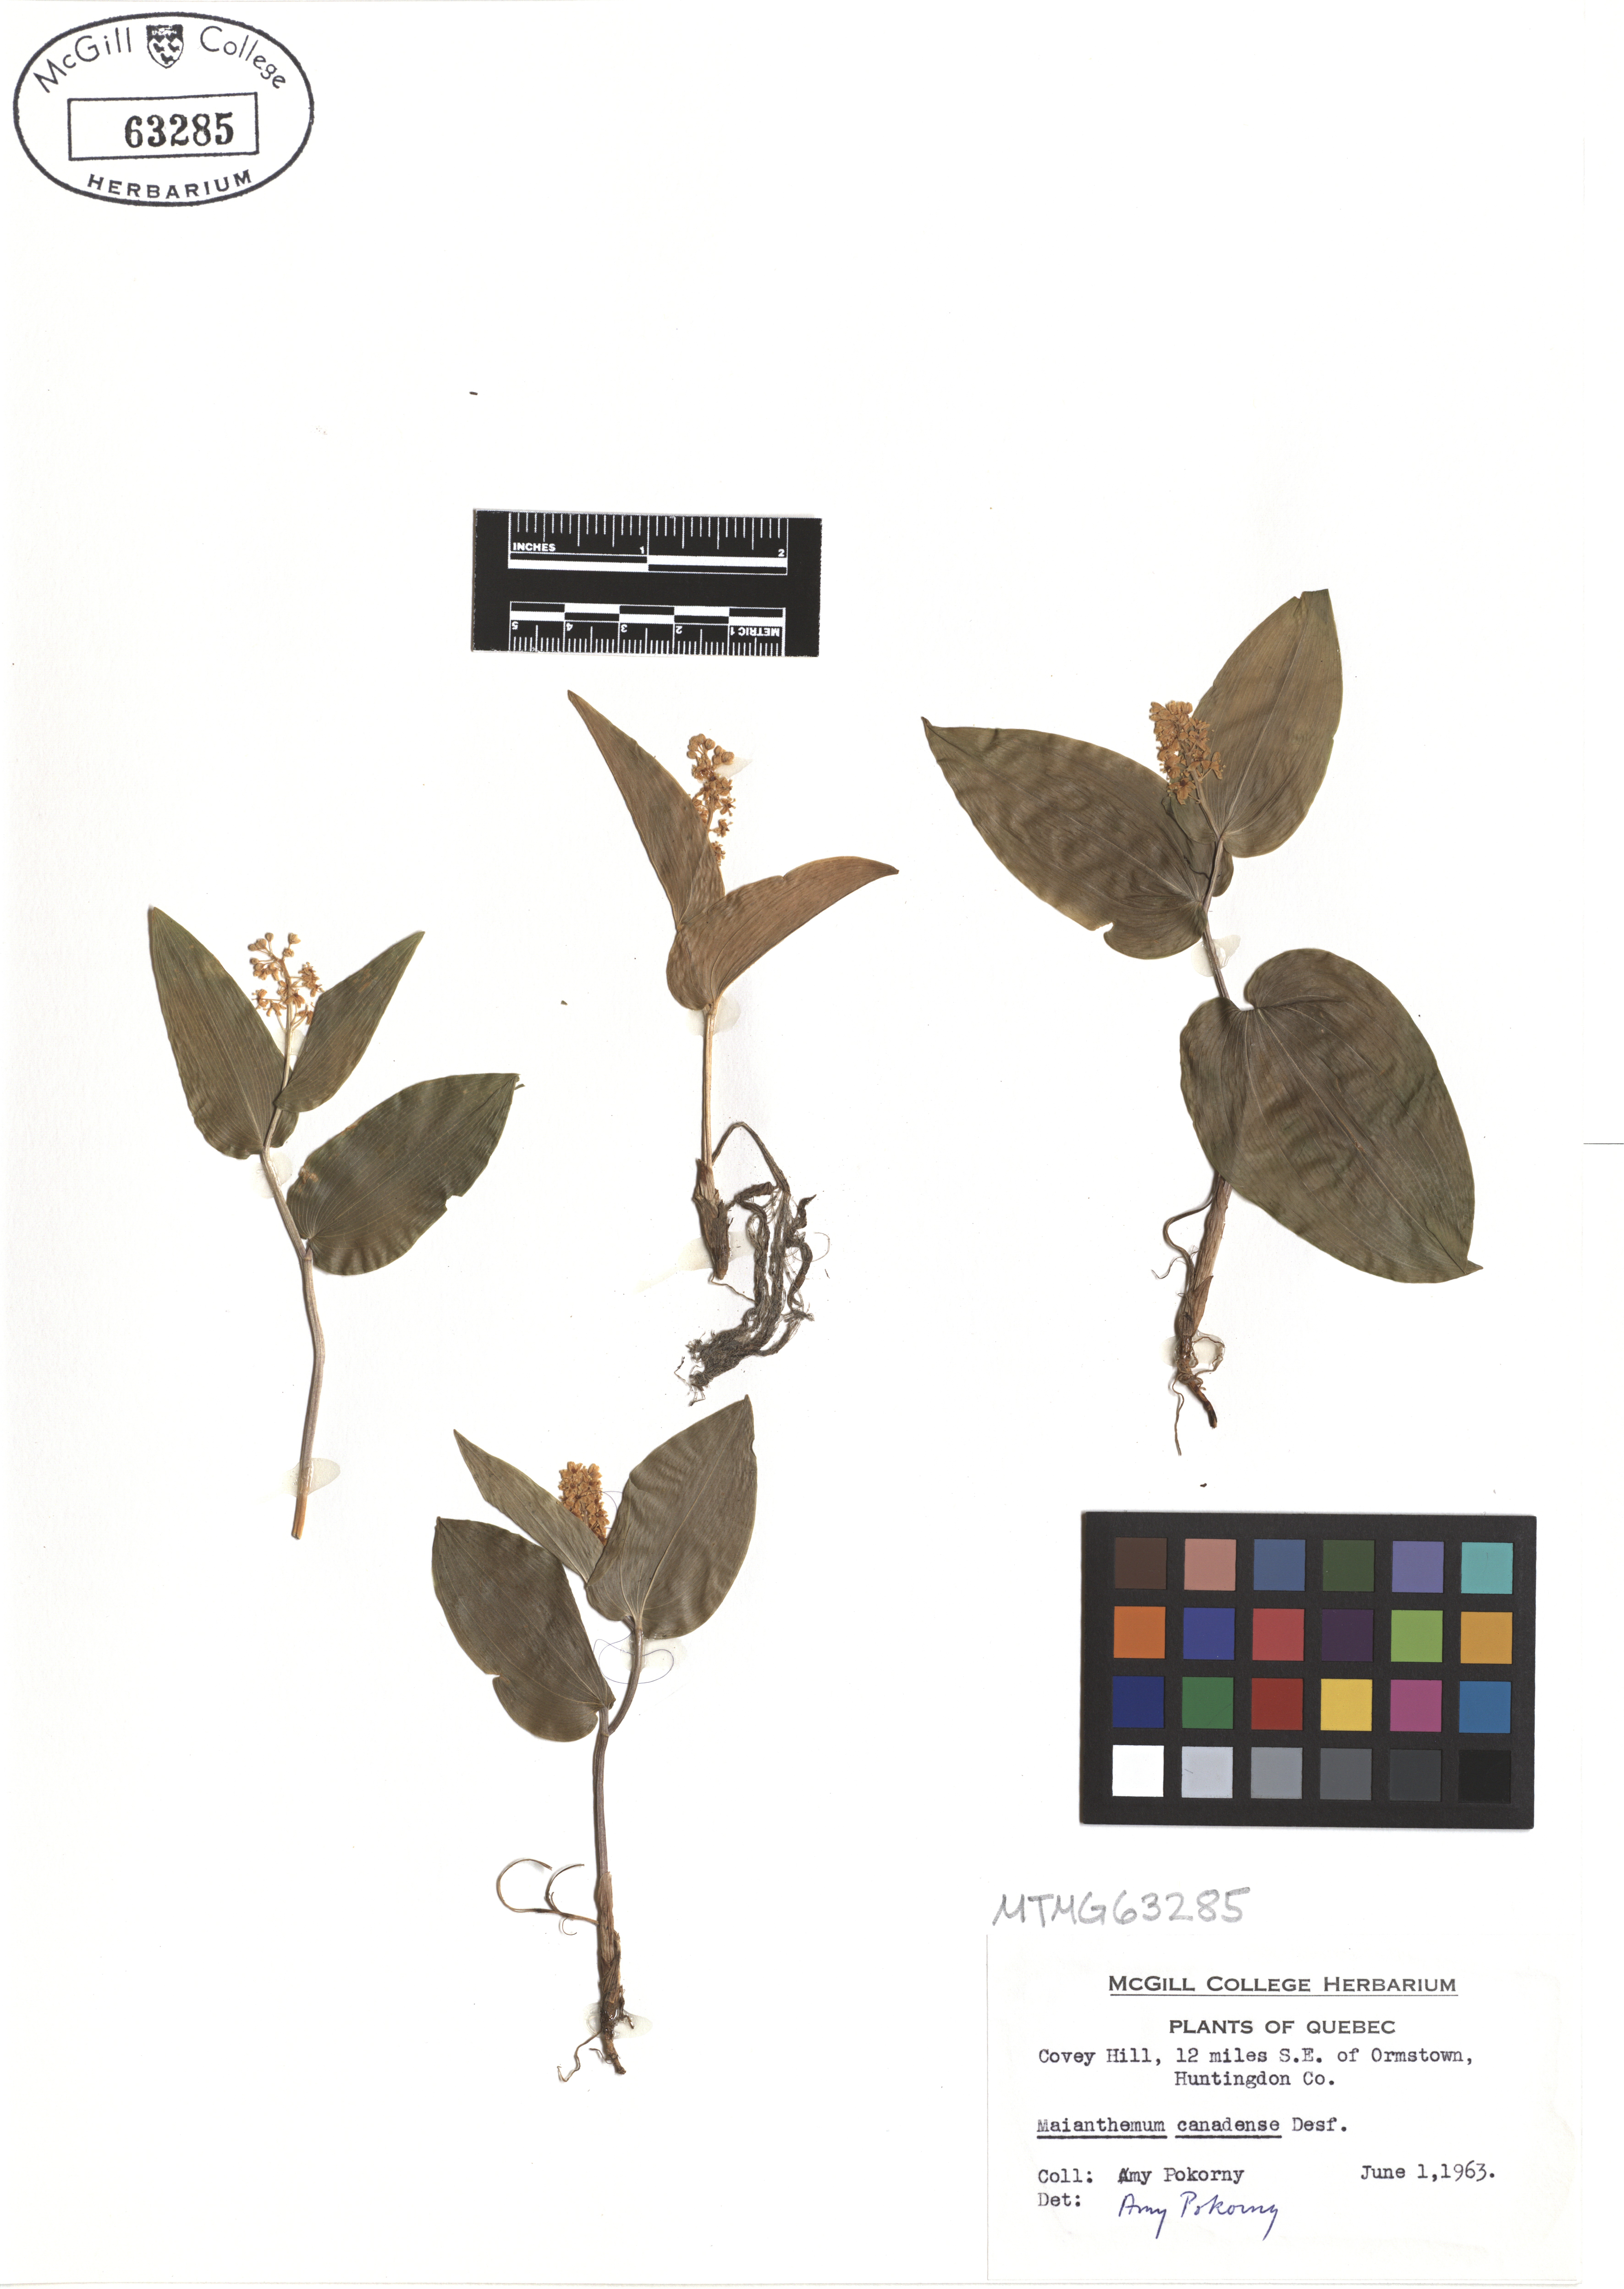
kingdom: Plantae
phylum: Tracheophyta
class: Liliopsida
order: Asparagales
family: Asparagaceae
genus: Maianthemum
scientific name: Maianthemum canadense
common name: False lily-of-the-valley
